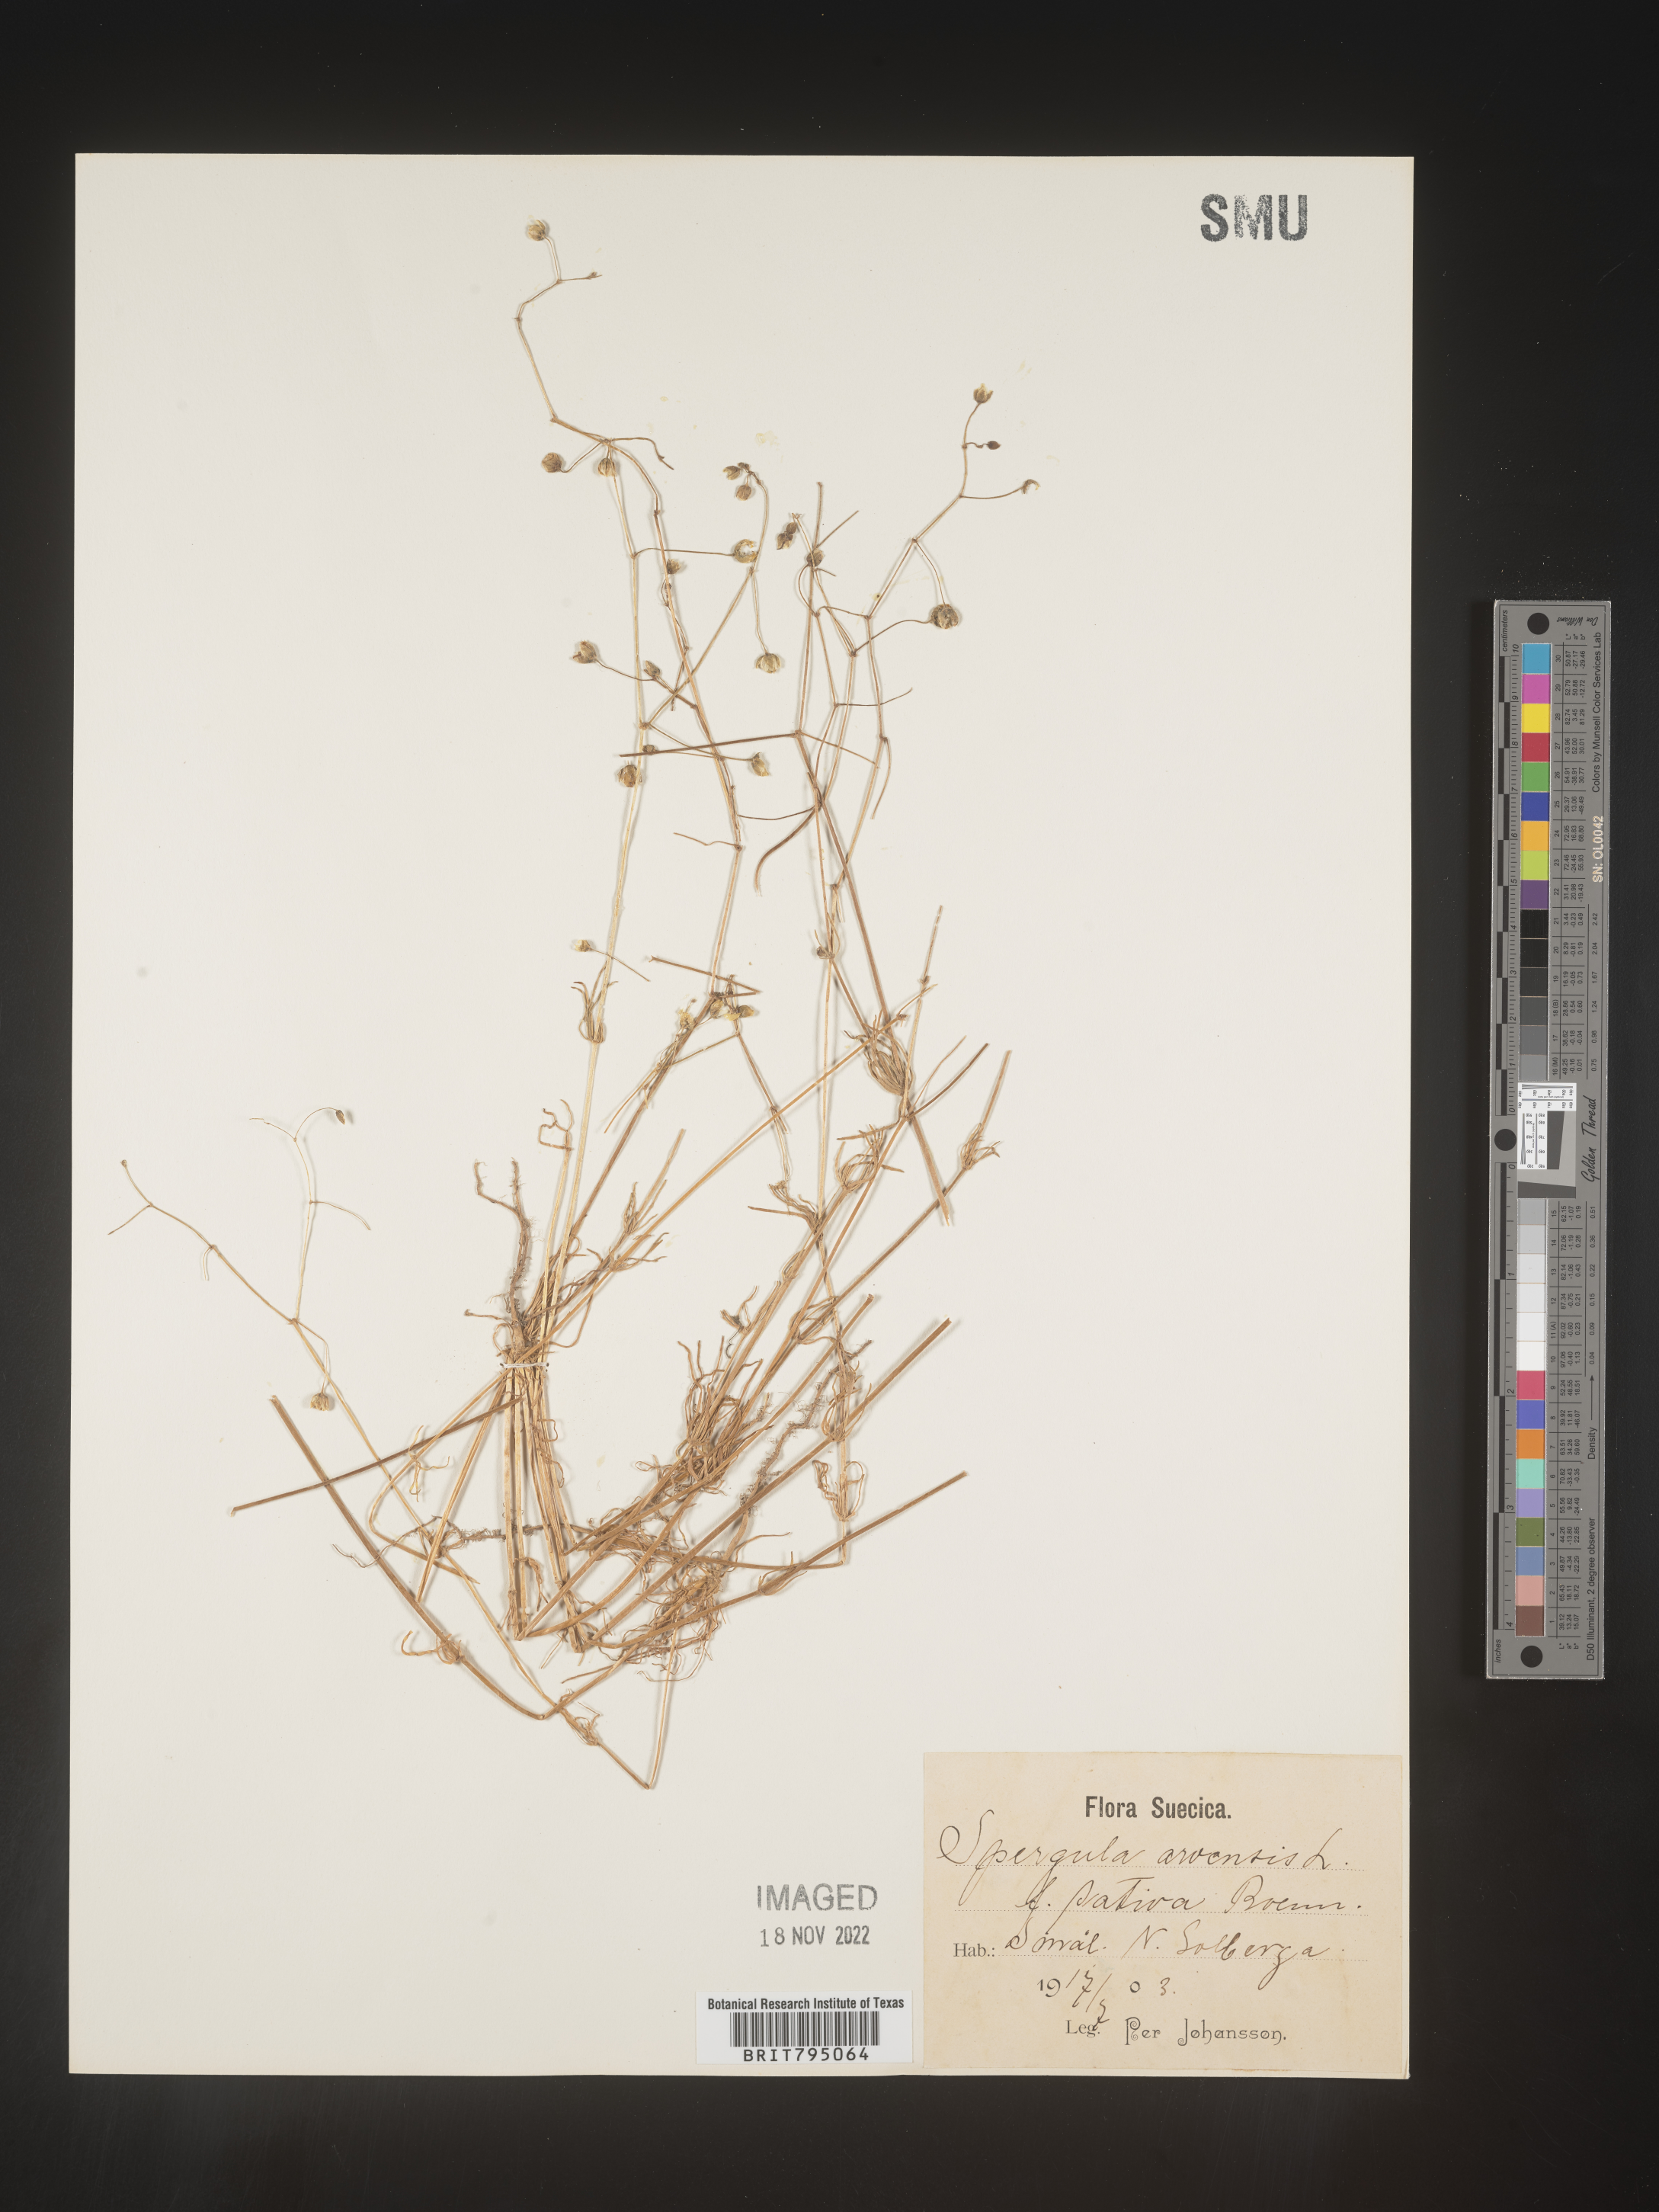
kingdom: Plantae
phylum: Tracheophyta
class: Magnoliopsida
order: Caryophyllales
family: Caryophyllaceae
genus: Spergula
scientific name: Spergula arvensis
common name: Corn spurrey
